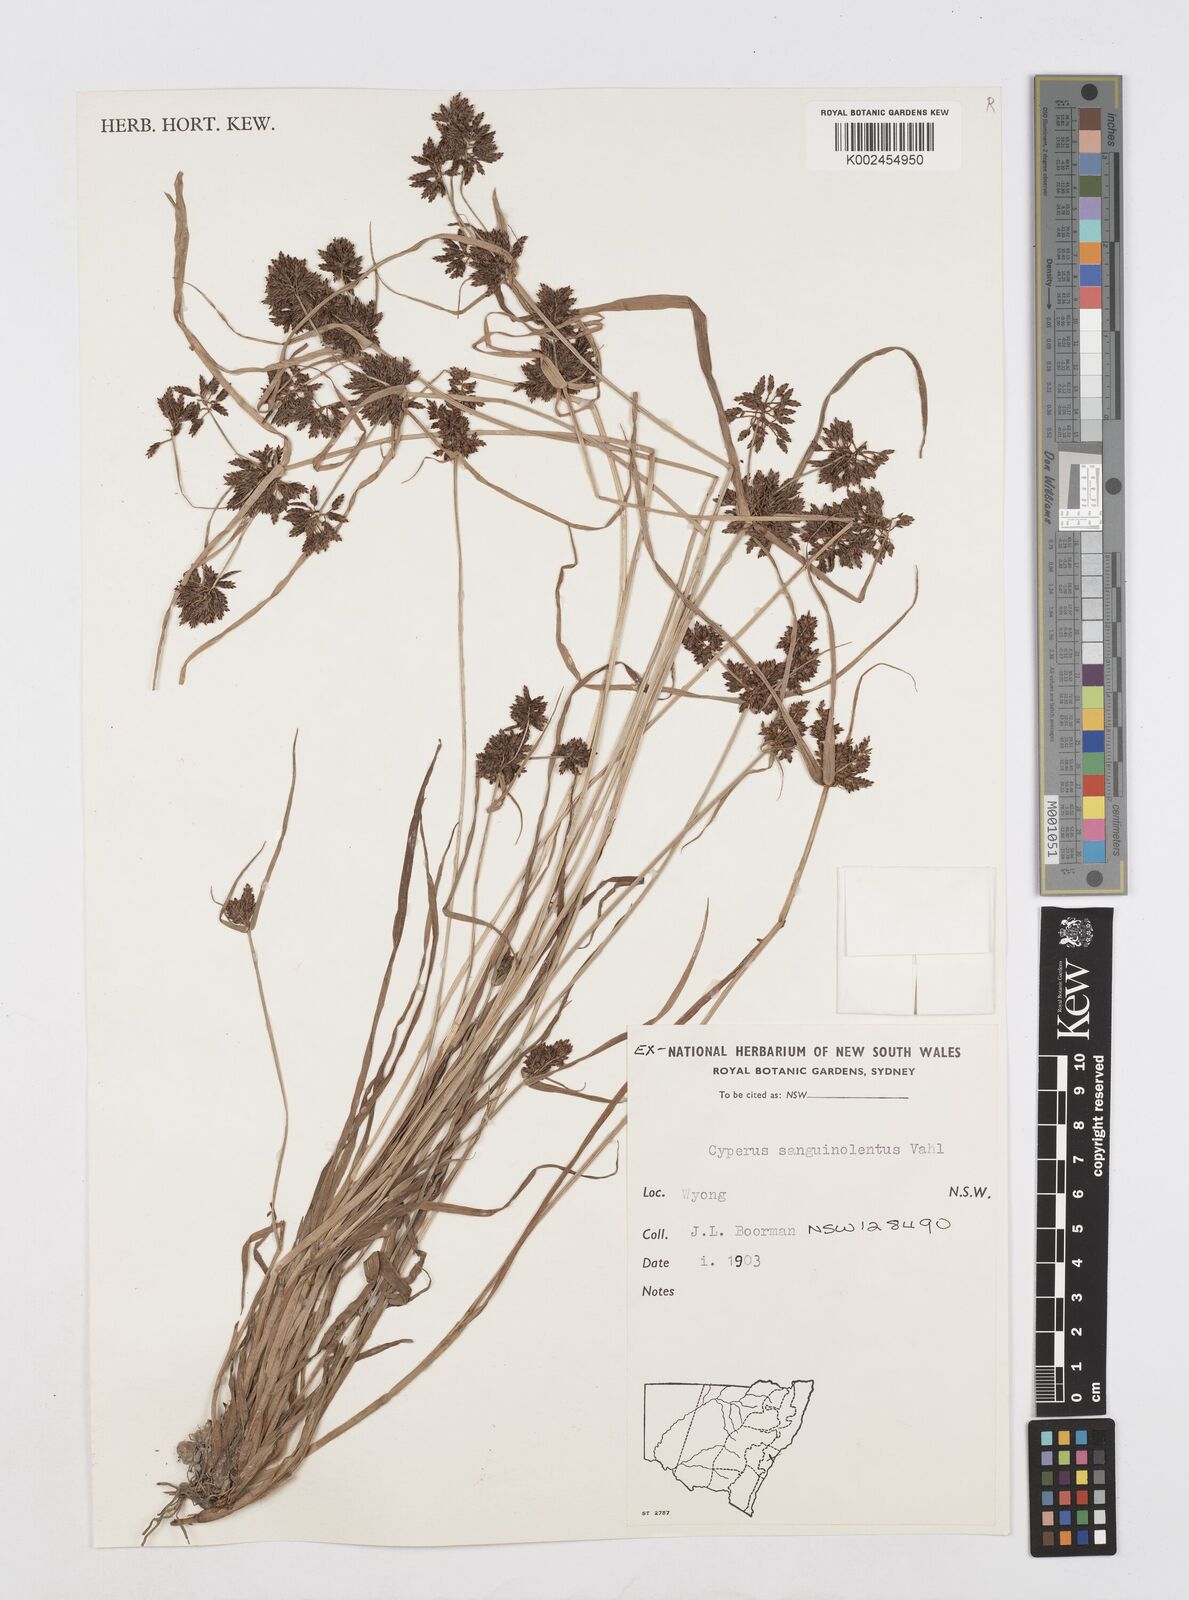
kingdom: Plantae
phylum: Tracheophyta
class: Liliopsida
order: Poales
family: Cyperaceae
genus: Cyperus
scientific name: Cyperus sanguinolentus
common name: Purpleglume flatsedge
